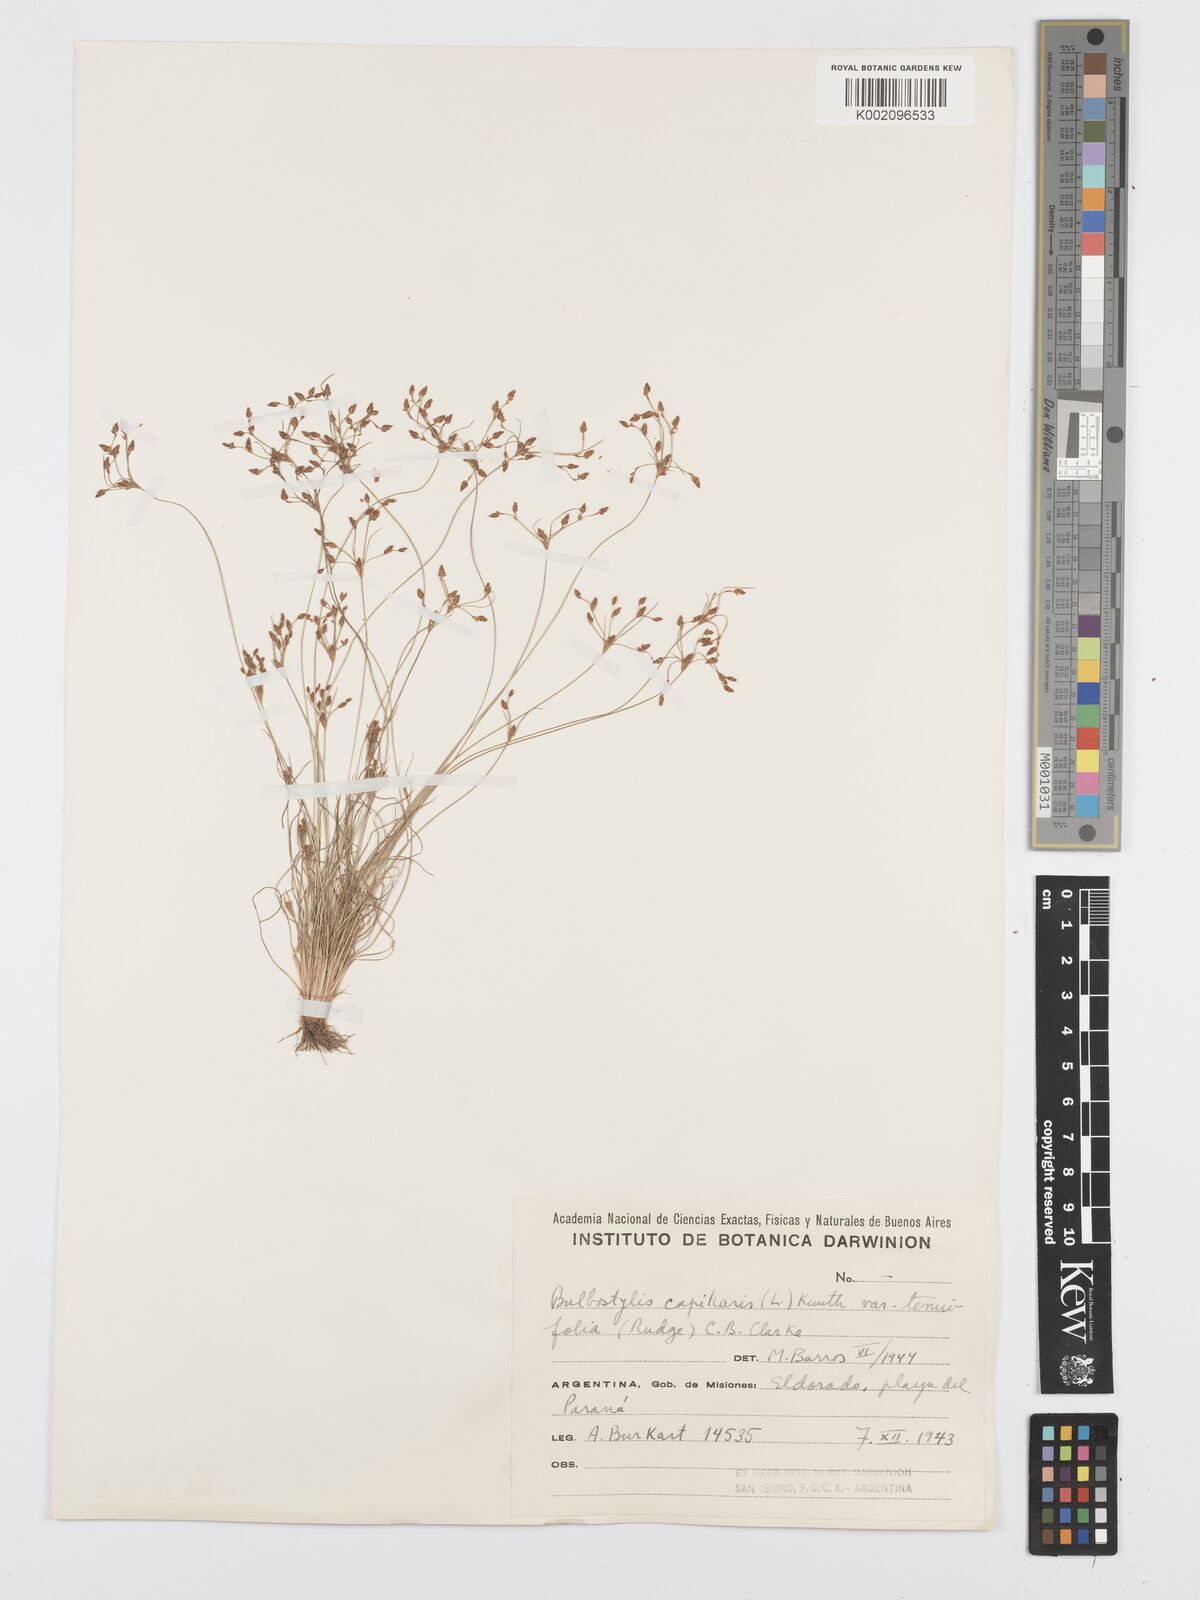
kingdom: Plantae
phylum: Tracheophyta
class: Liliopsida
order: Poales
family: Cyperaceae
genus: Bulbostylis
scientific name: Bulbostylis capillaris
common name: Densetuft hairsedge
